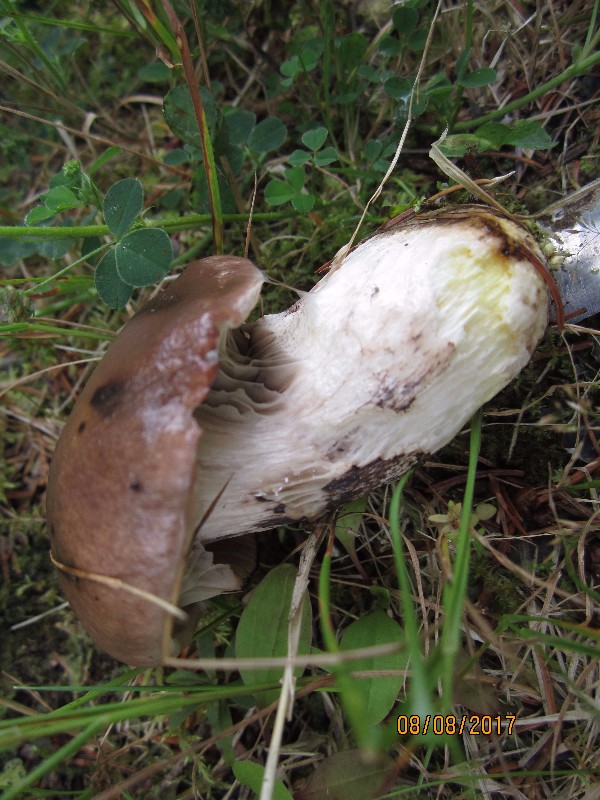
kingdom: Fungi
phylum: Basidiomycota
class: Agaricomycetes
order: Boletales
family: Gomphidiaceae
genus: Gomphidius
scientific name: Gomphidius glutinosus
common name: grå slimslør
